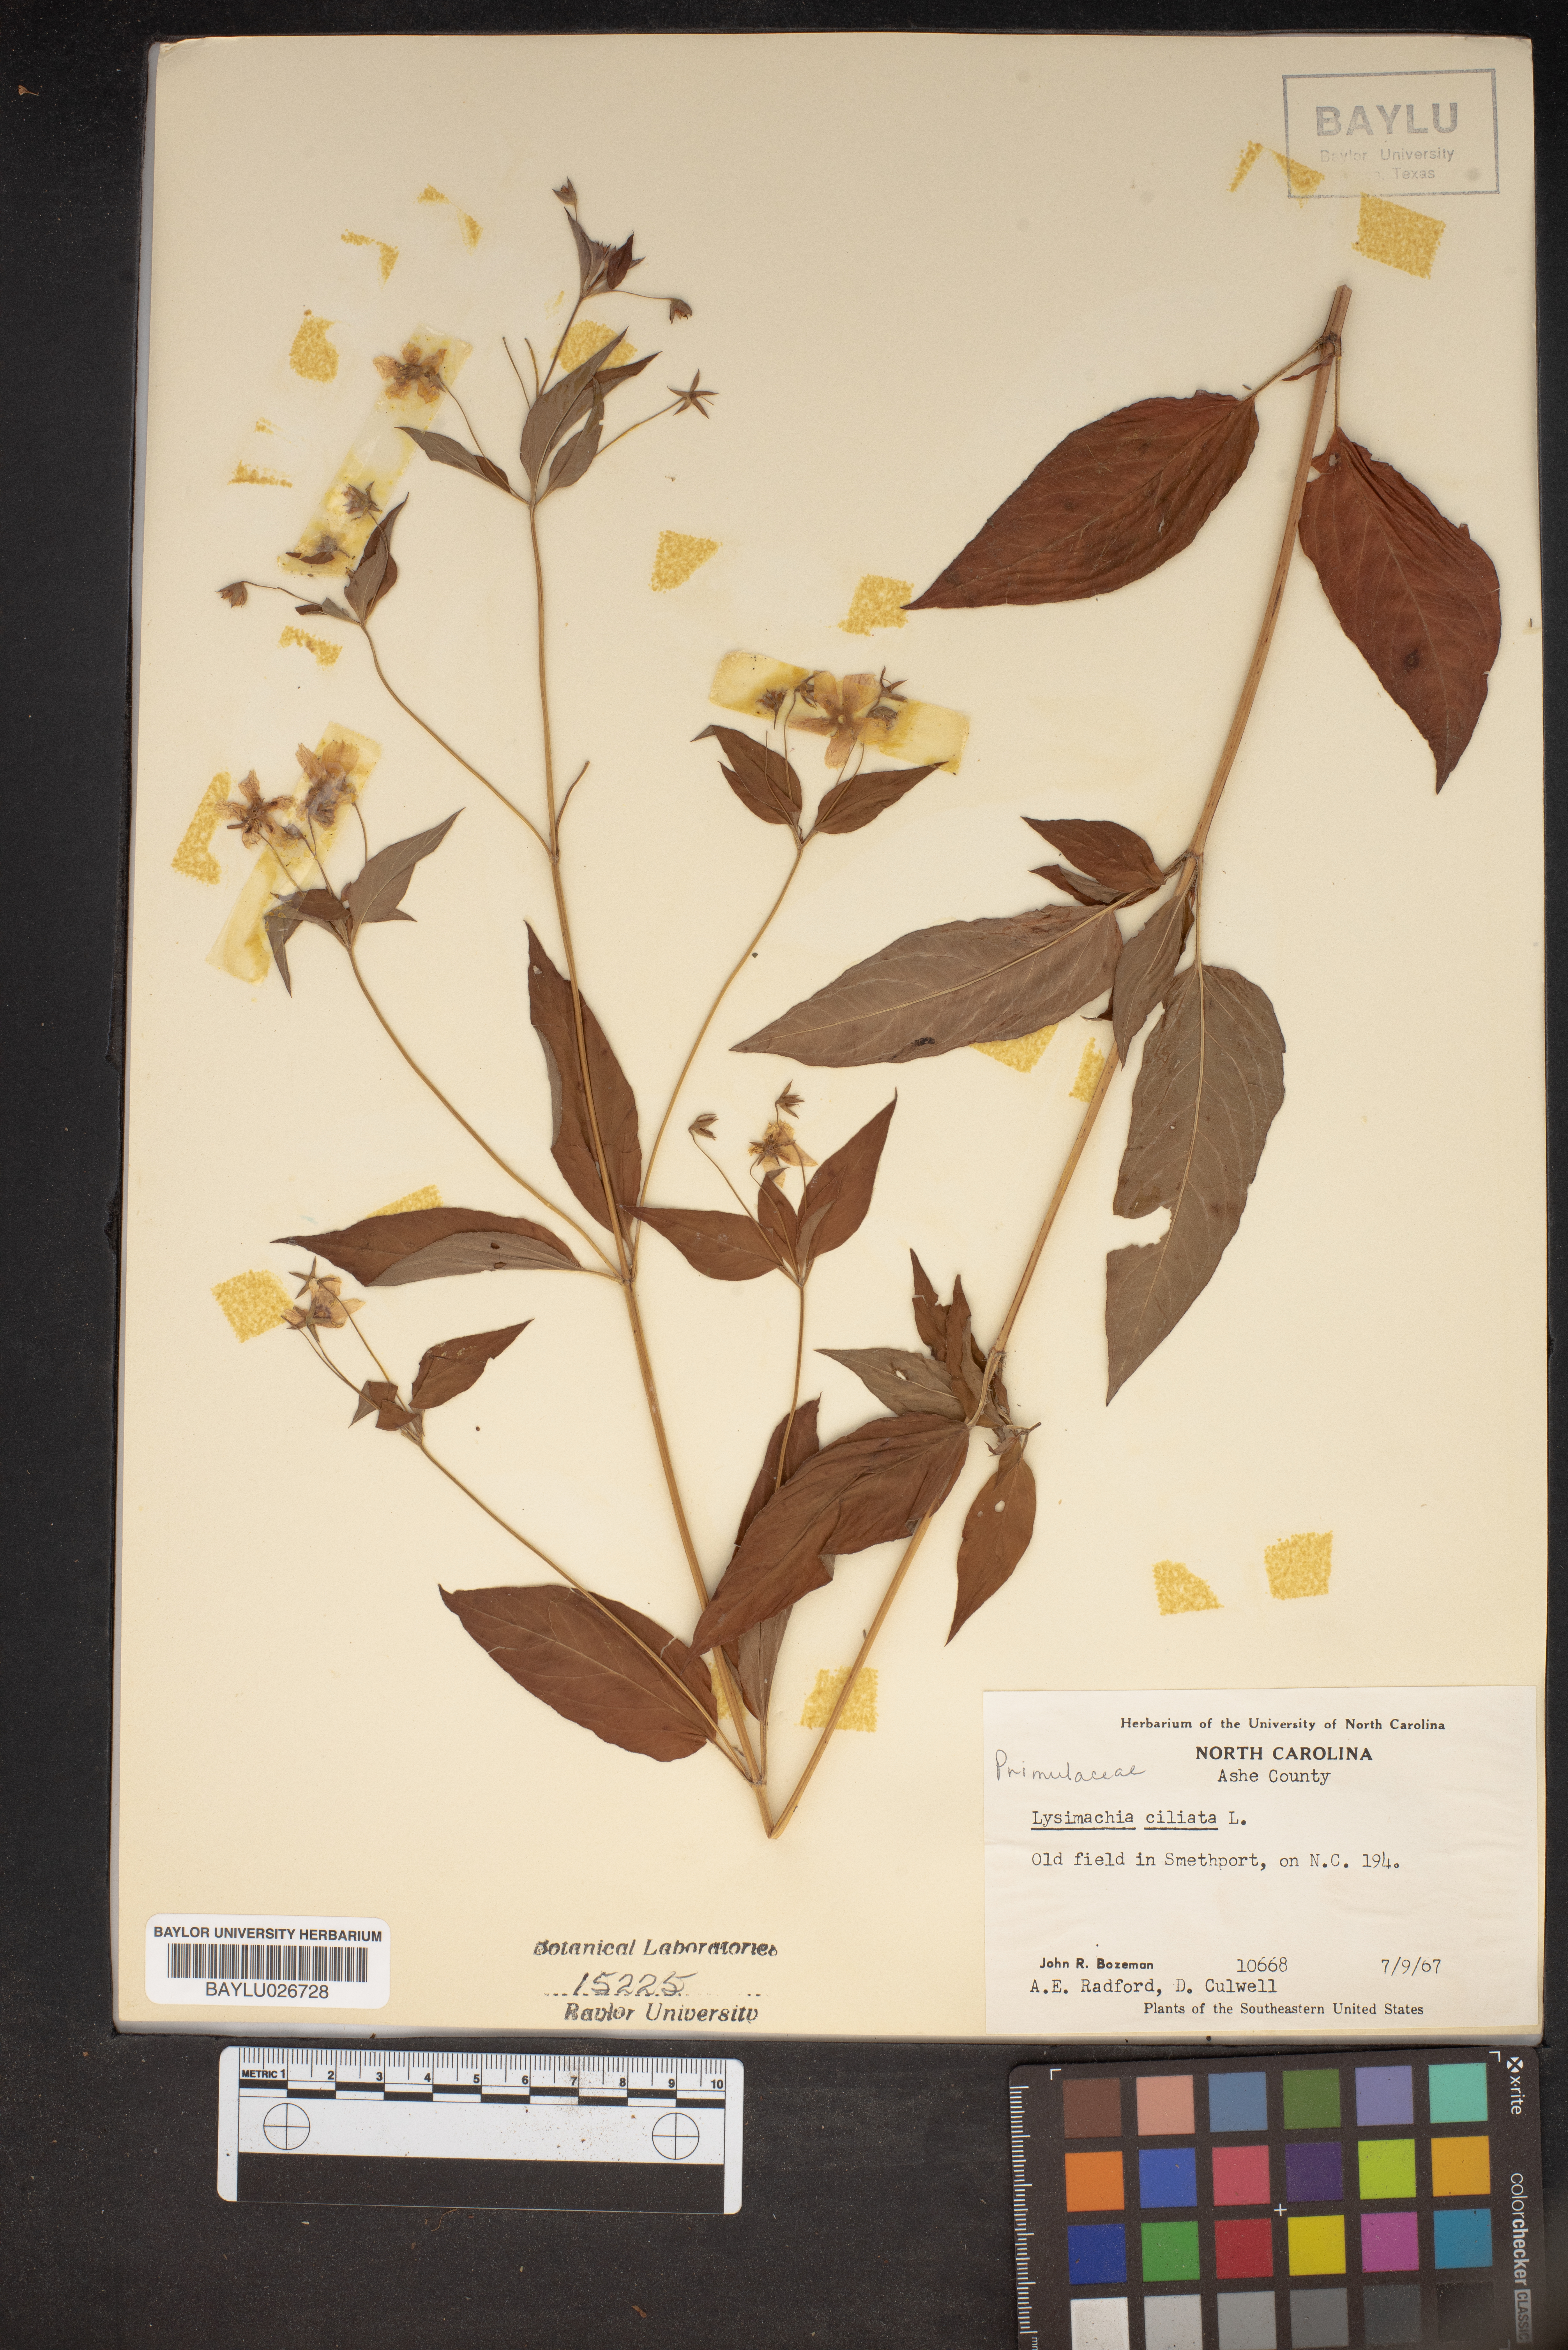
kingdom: Plantae
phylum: Tracheophyta
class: Magnoliopsida
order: Ericales
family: Primulaceae
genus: Lysimachia
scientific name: Lysimachia ciliata
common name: Fringed loosestrife
